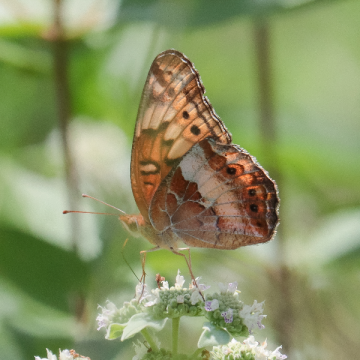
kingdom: Animalia
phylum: Arthropoda
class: Insecta
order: Lepidoptera
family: Nymphalidae
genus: Euptoieta
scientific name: Euptoieta claudia
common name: Variegated Fritillary
